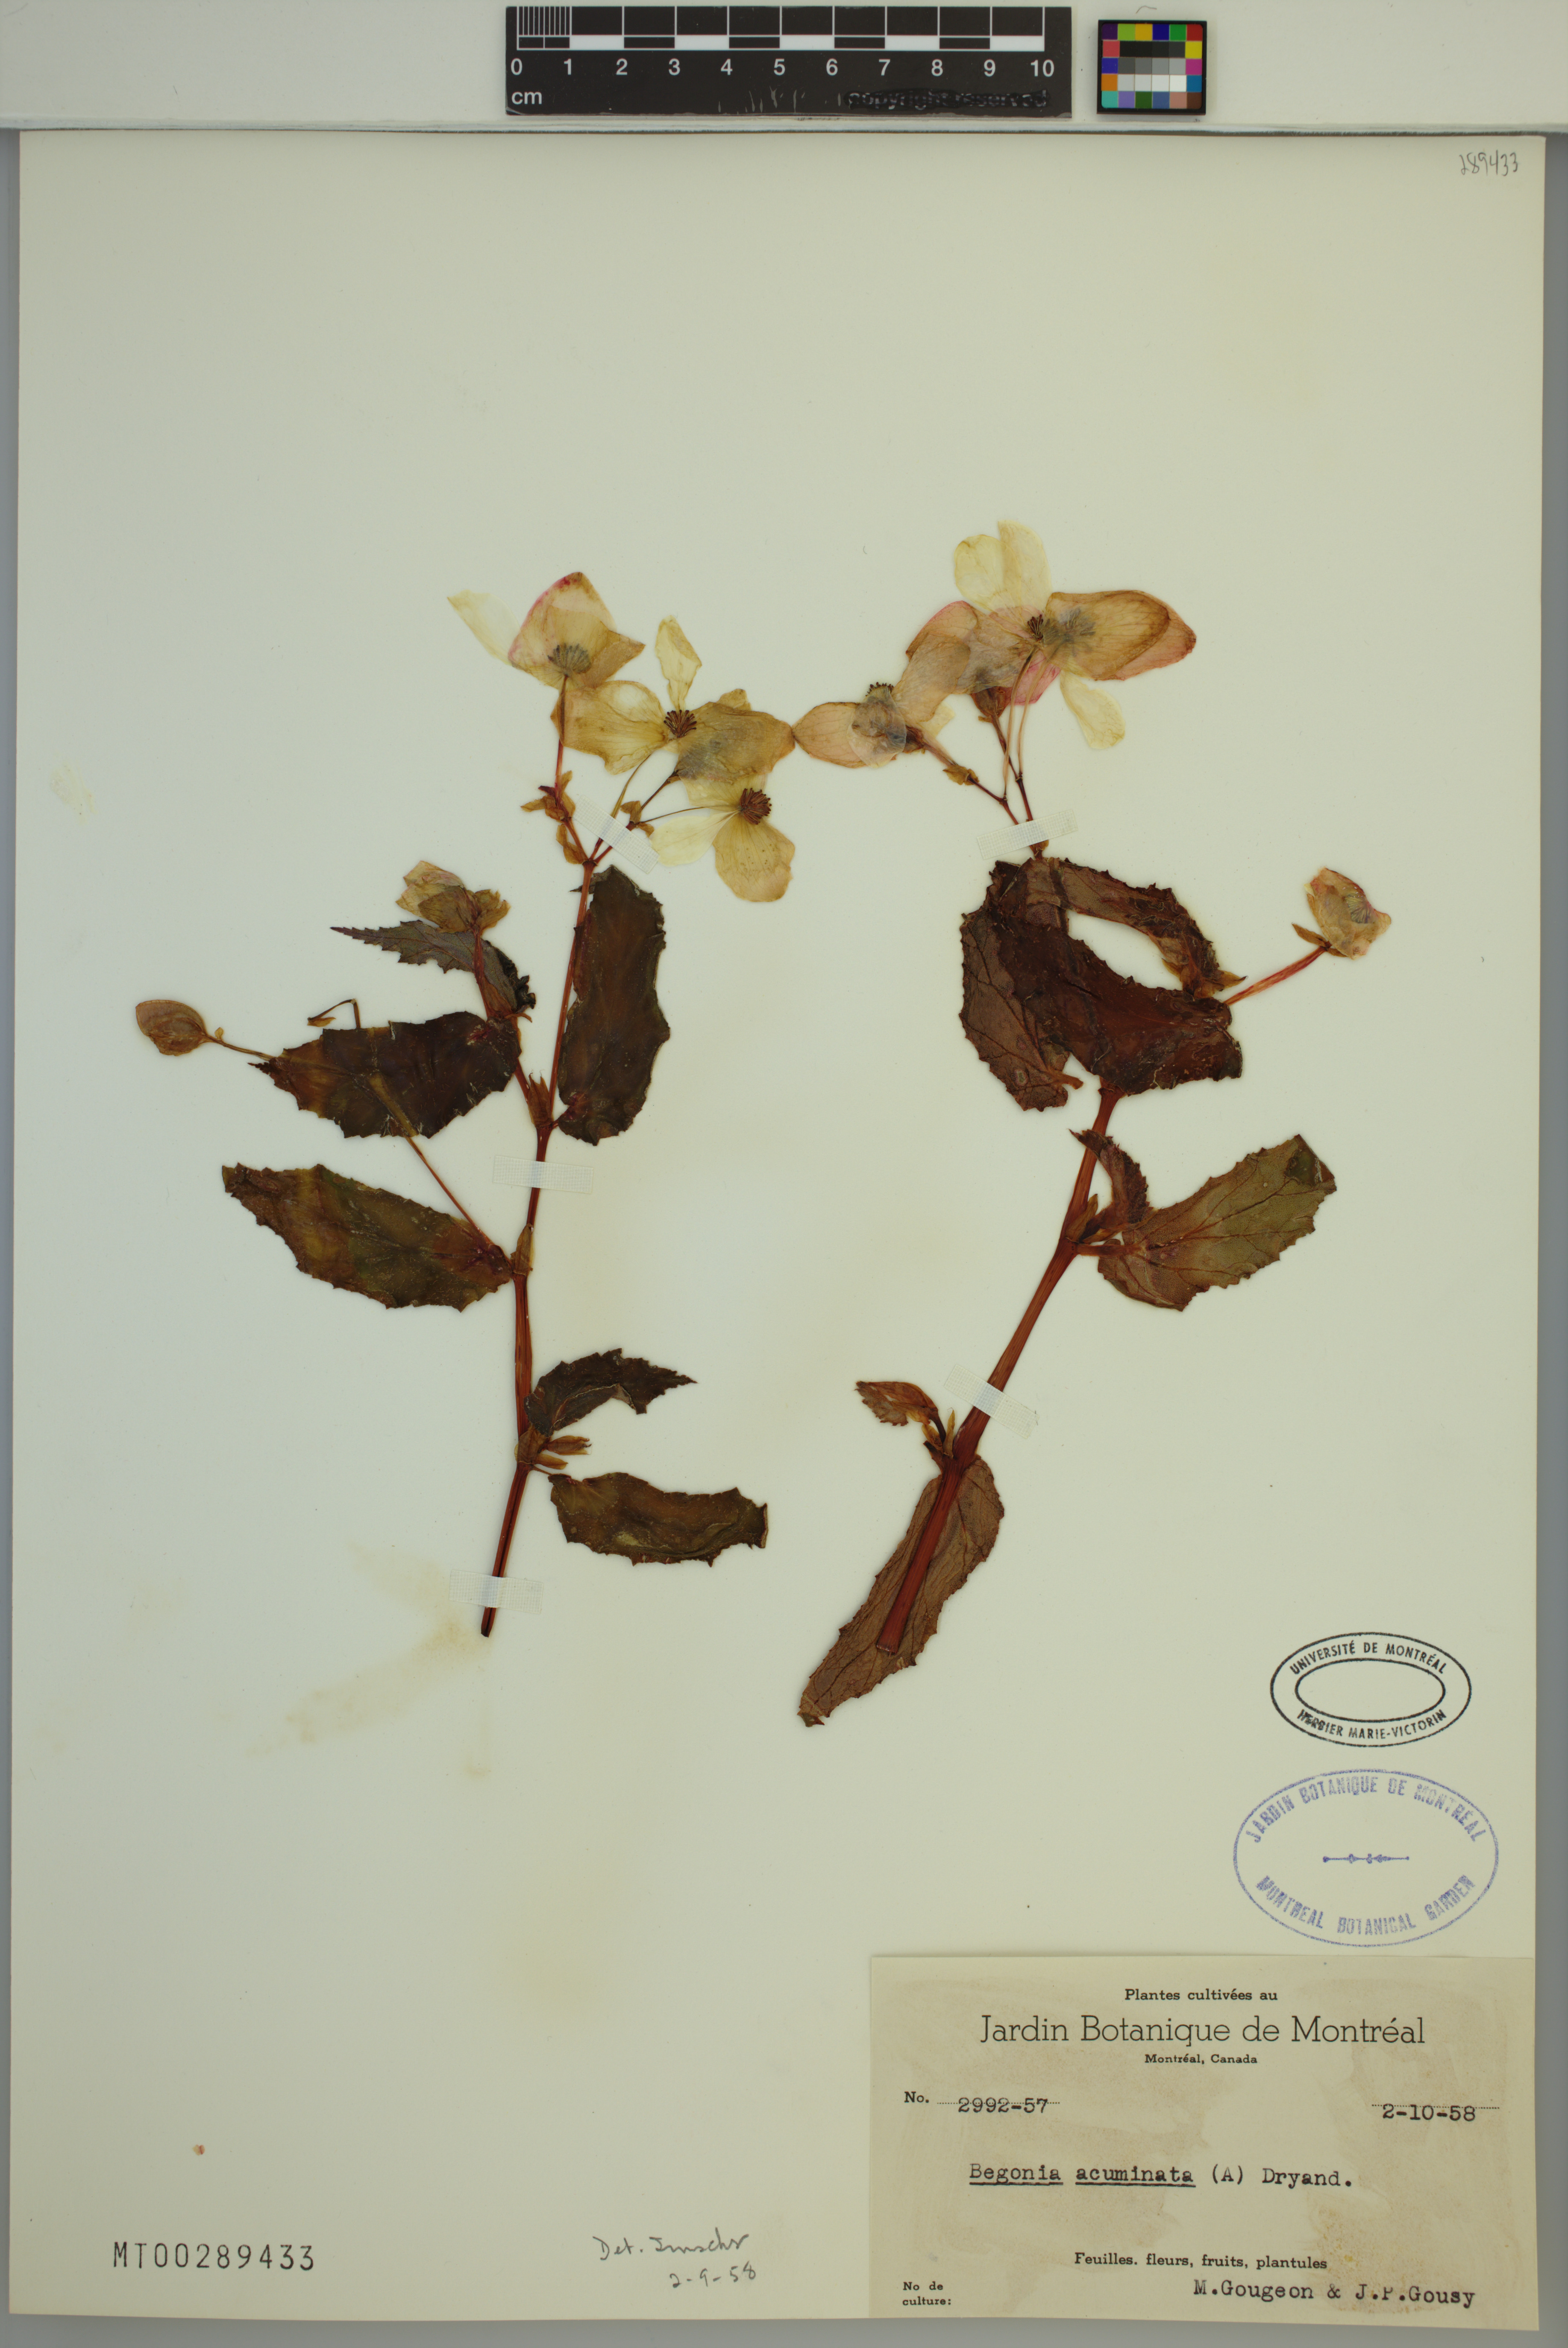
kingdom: Plantae
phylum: Tracheophyta
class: Magnoliopsida
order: Cucurbitales
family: Begoniaceae
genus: Begonia
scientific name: Begonia acutifolia
